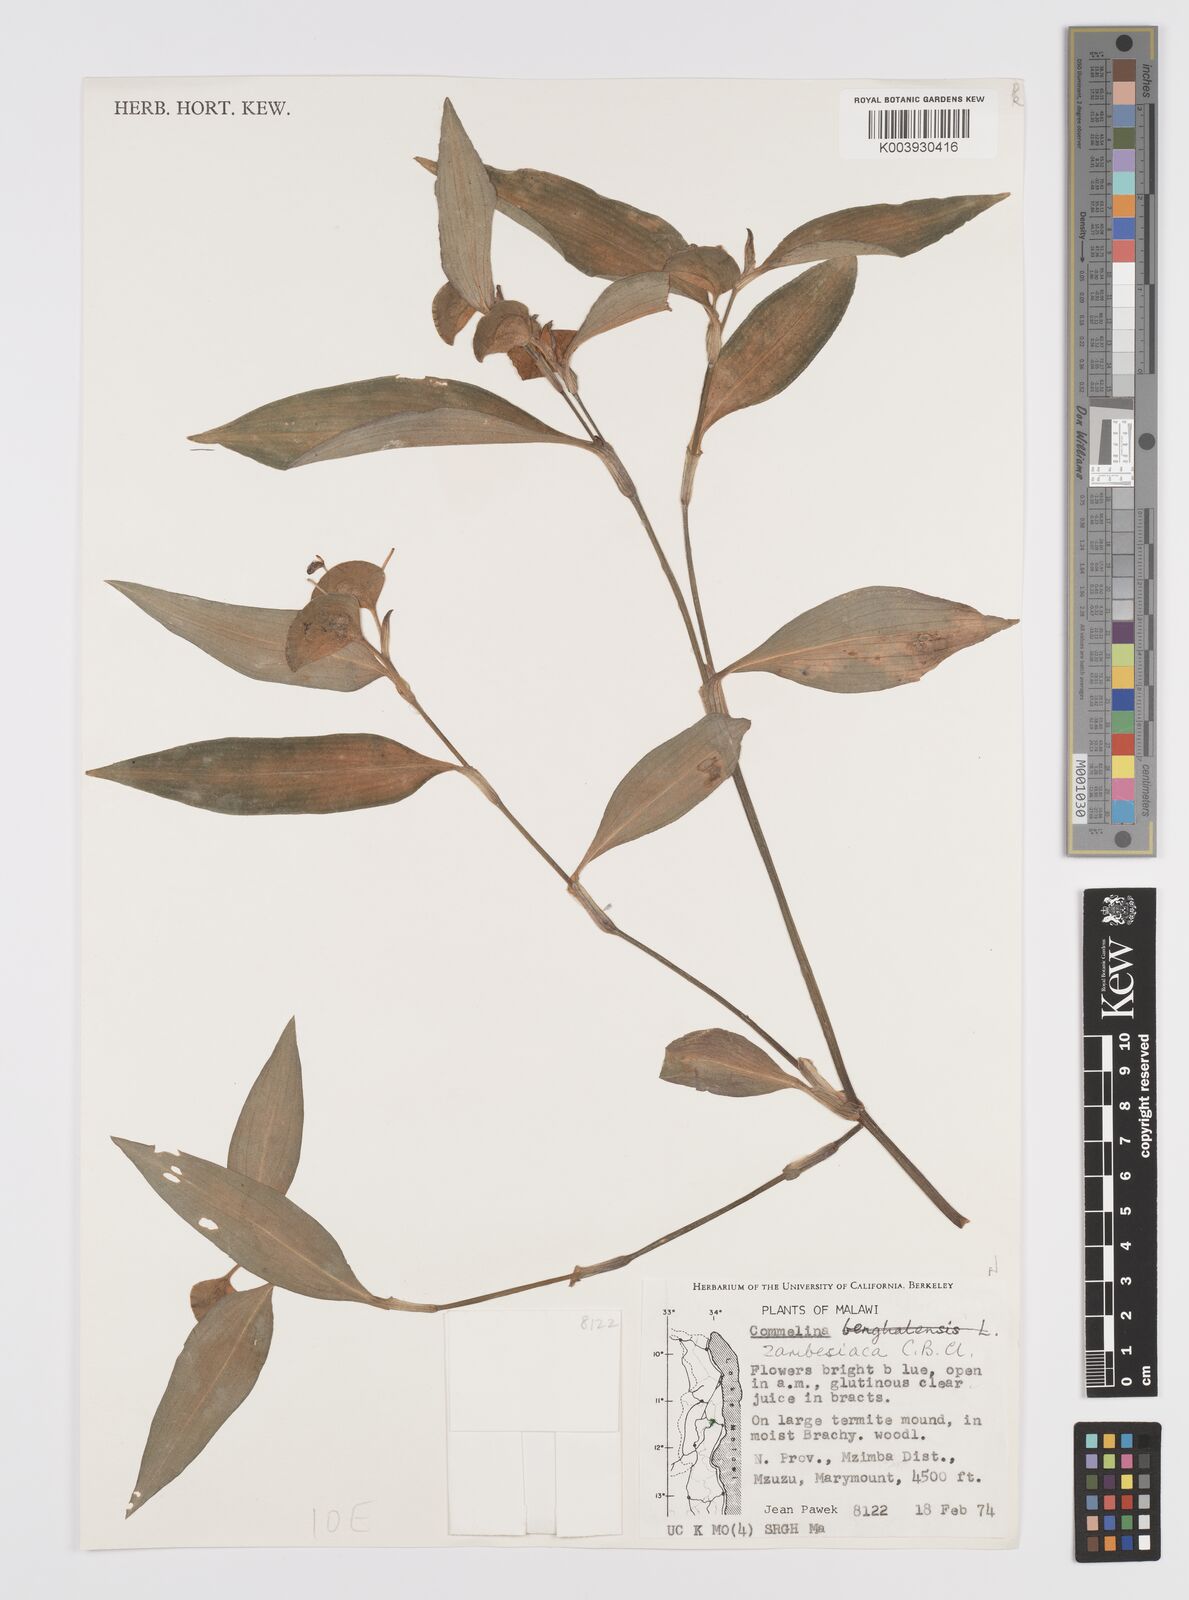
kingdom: Plantae
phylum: Tracheophyta
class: Liliopsida
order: Commelinales
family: Commelinaceae
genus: Commelina
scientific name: Commelina zambesica
